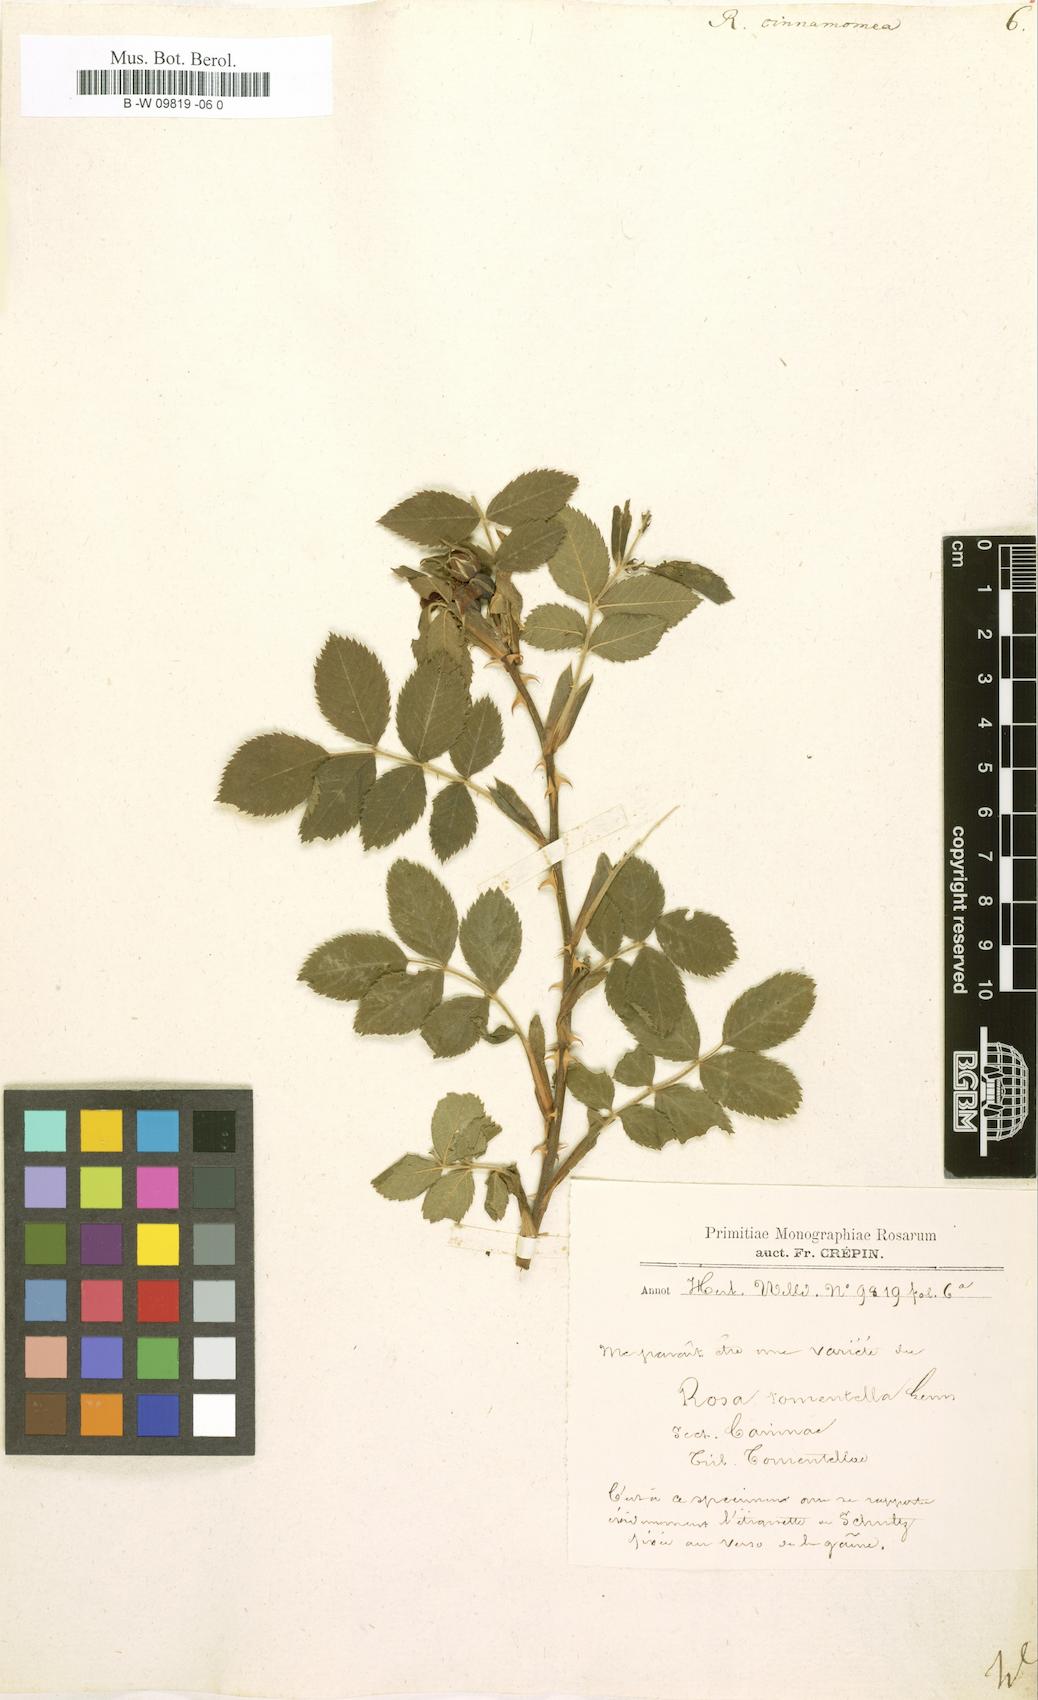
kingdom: Plantae
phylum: Tracheophyta
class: Magnoliopsida
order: Rosales
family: Rosaceae
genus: Rosa
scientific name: Rosa pendulina
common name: Alpine rose
